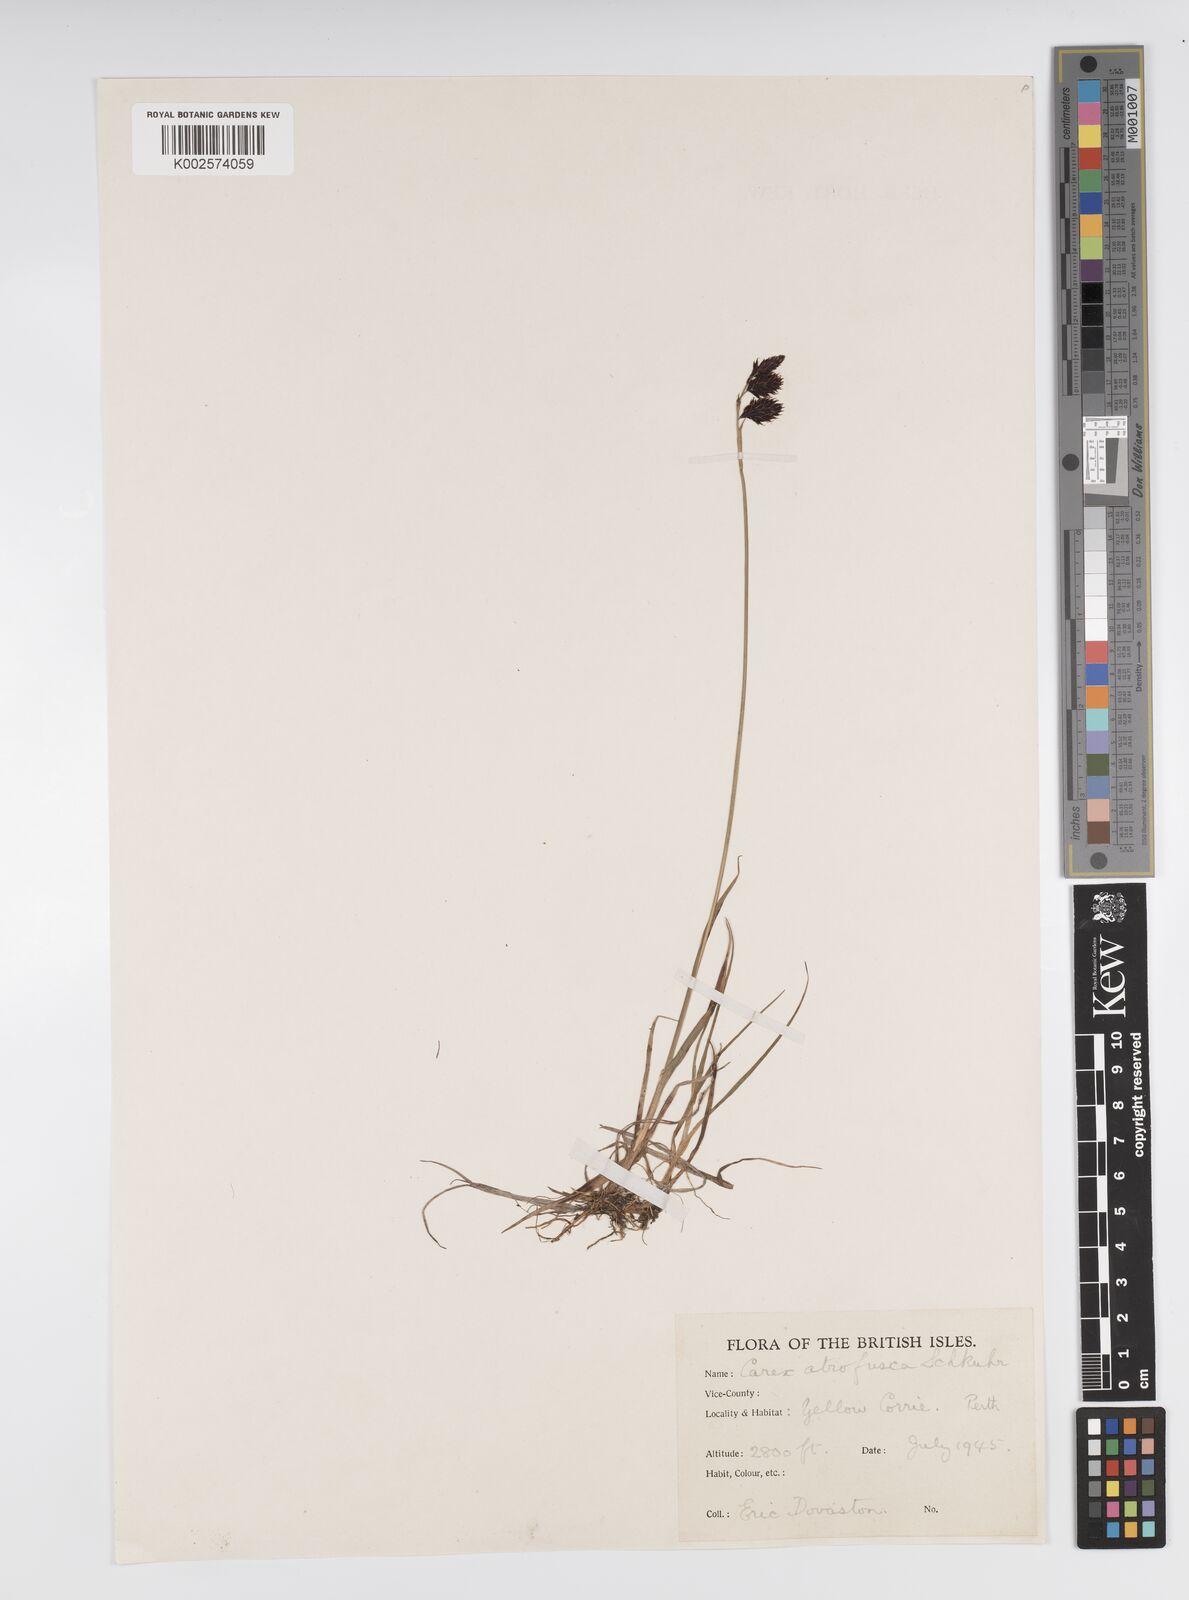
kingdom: Plantae
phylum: Tracheophyta
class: Liliopsida
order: Poales
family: Cyperaceae
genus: Carex
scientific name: Carex atrofusca
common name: Scorched alpine-sedge
